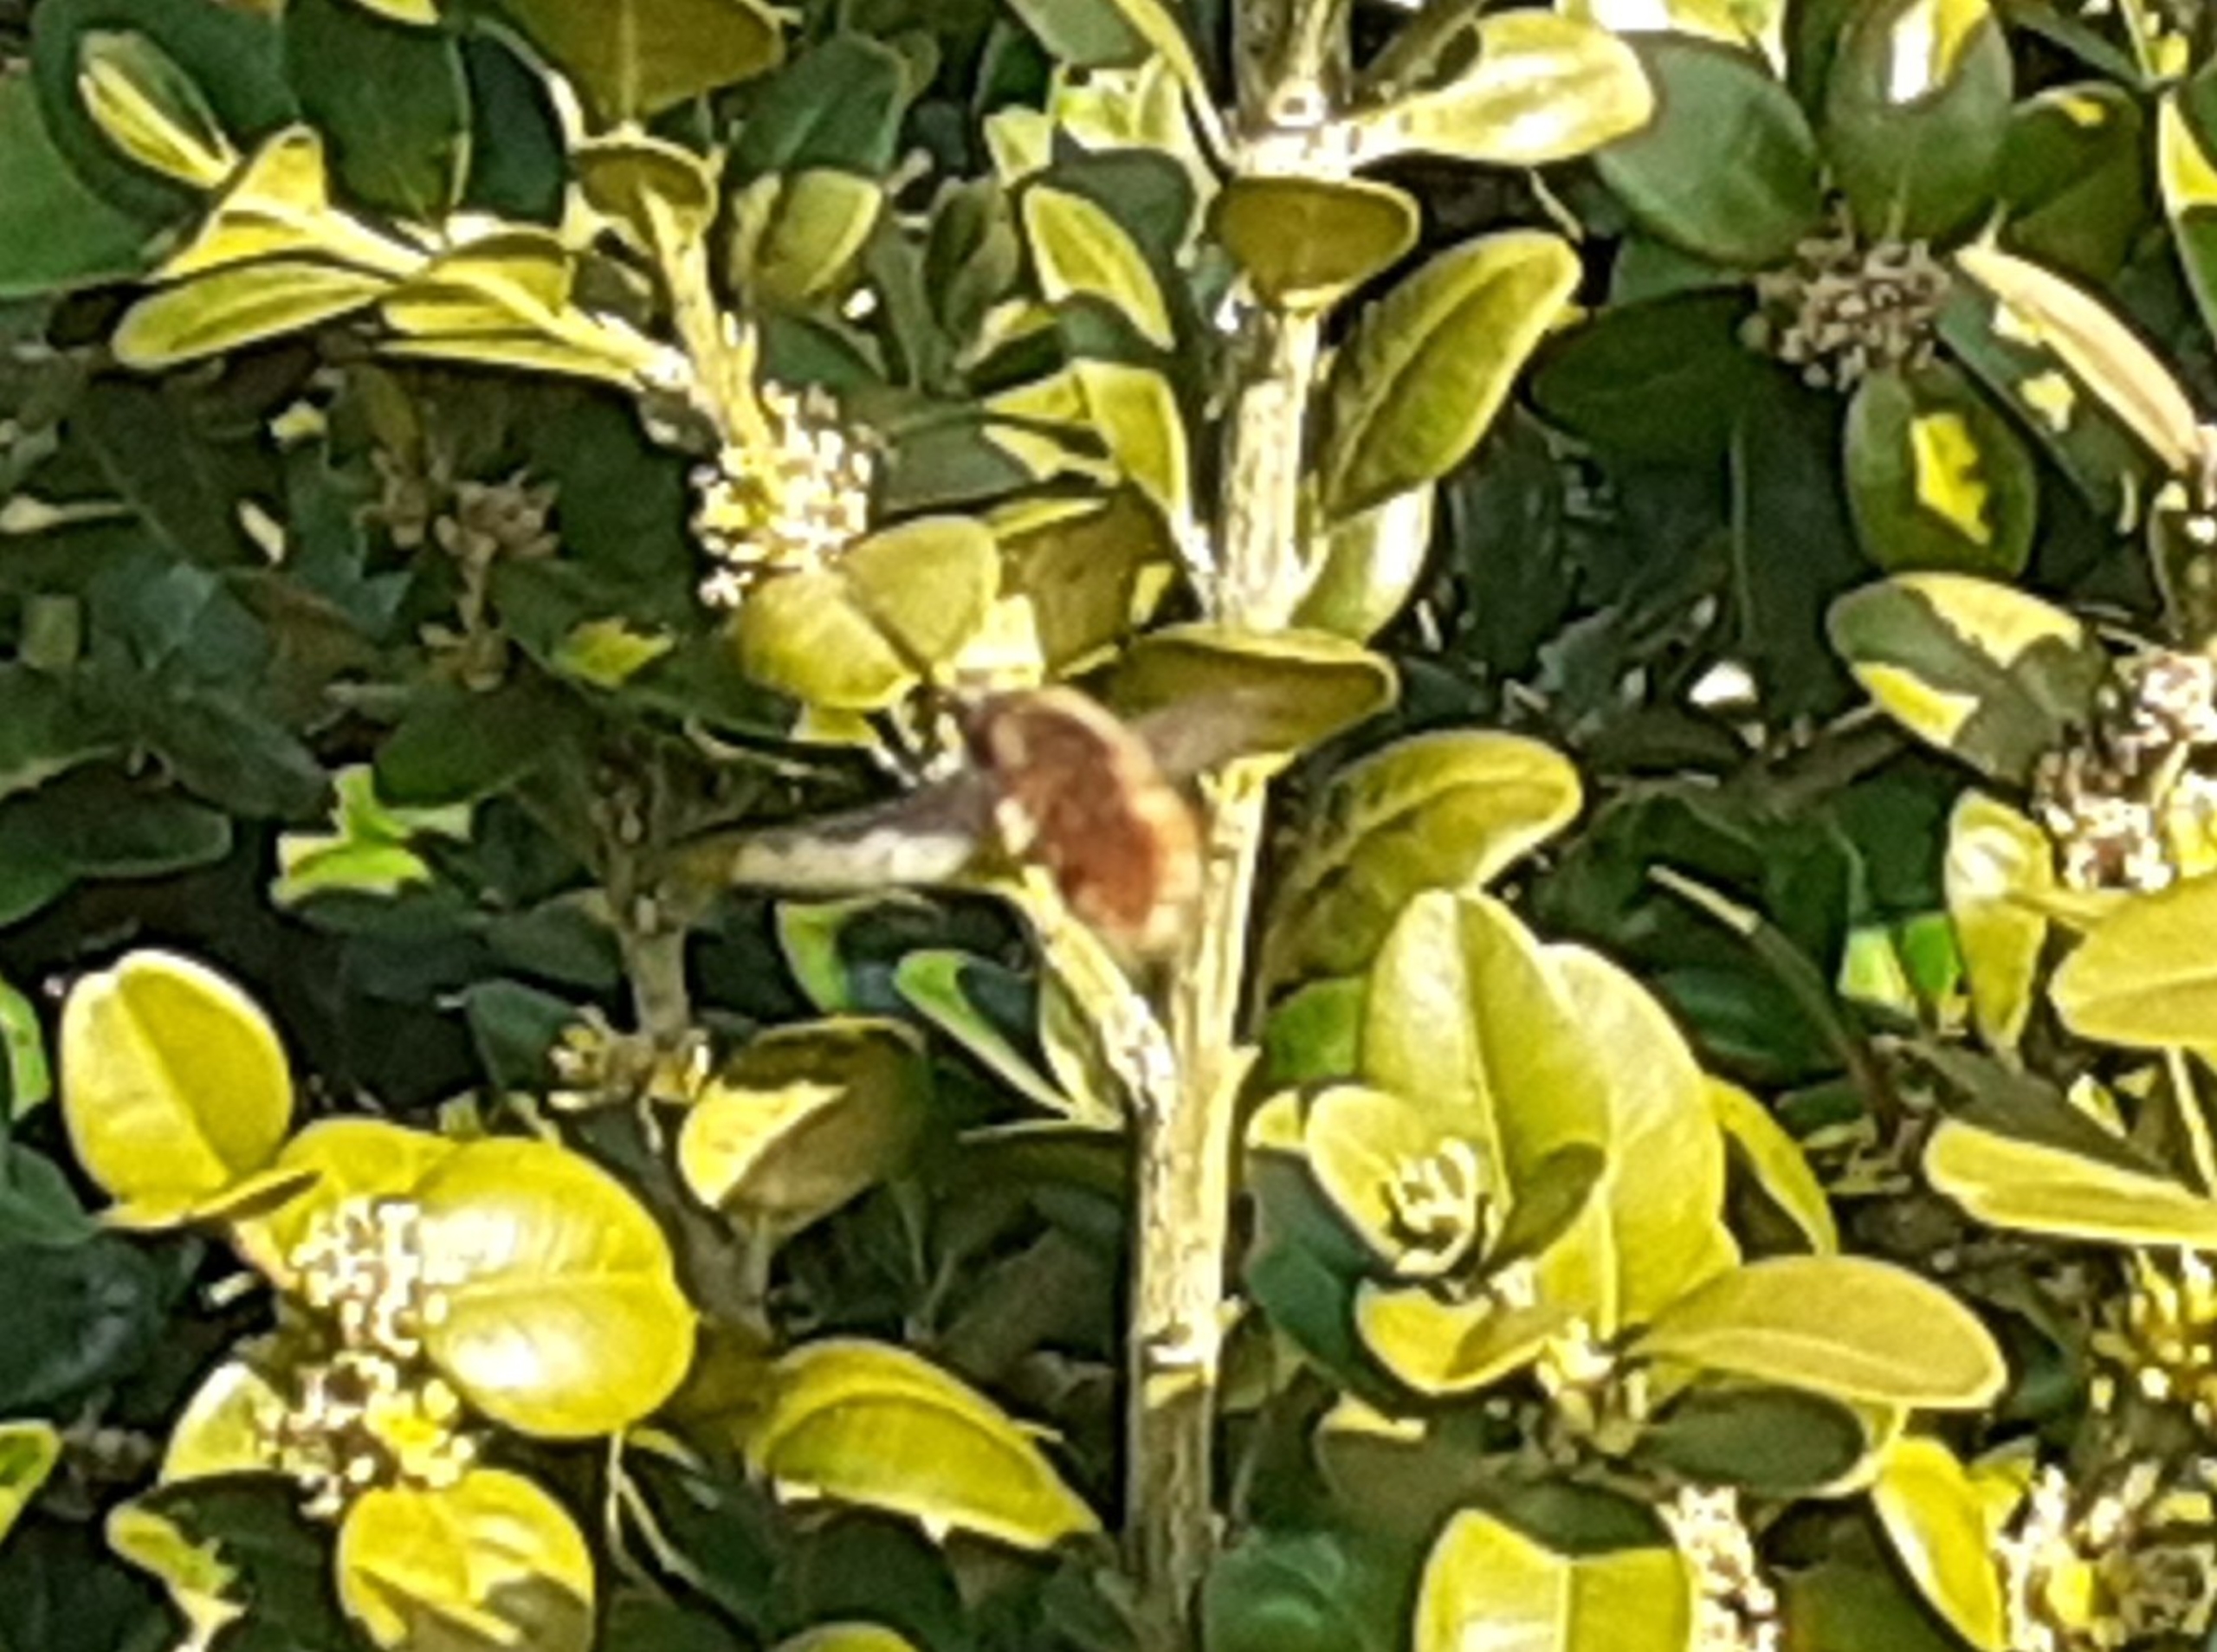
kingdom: Animalia
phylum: Arthropoda
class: Insecta
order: Diptera
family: Bombyliidae
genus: Bombylius
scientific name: Bombylius major
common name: Stor humleflue
